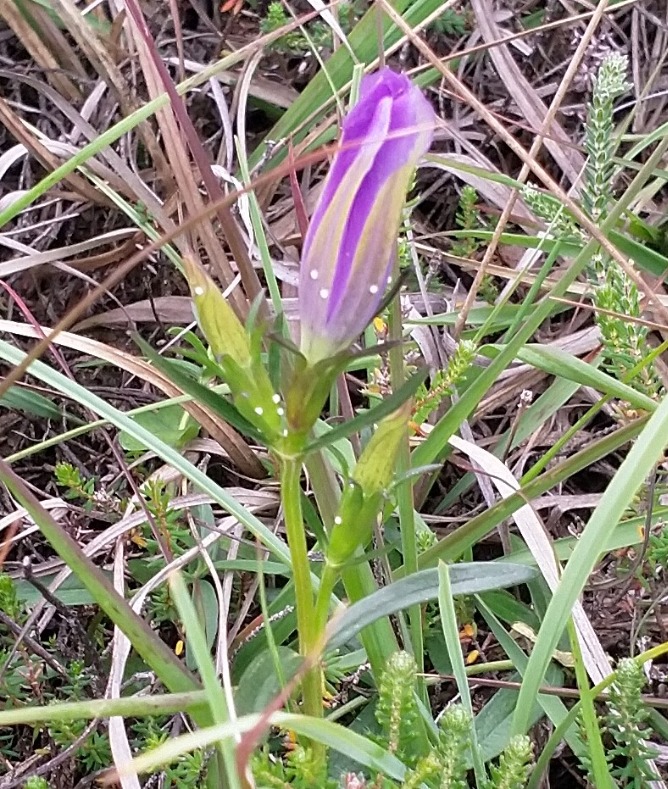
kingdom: Plantae
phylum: Tracheophyta
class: Magnoliopsida
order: Gentianales
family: Gentianaceae
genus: Gentiana
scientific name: Gentiana pneumonanthe
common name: Klokke-ensian
